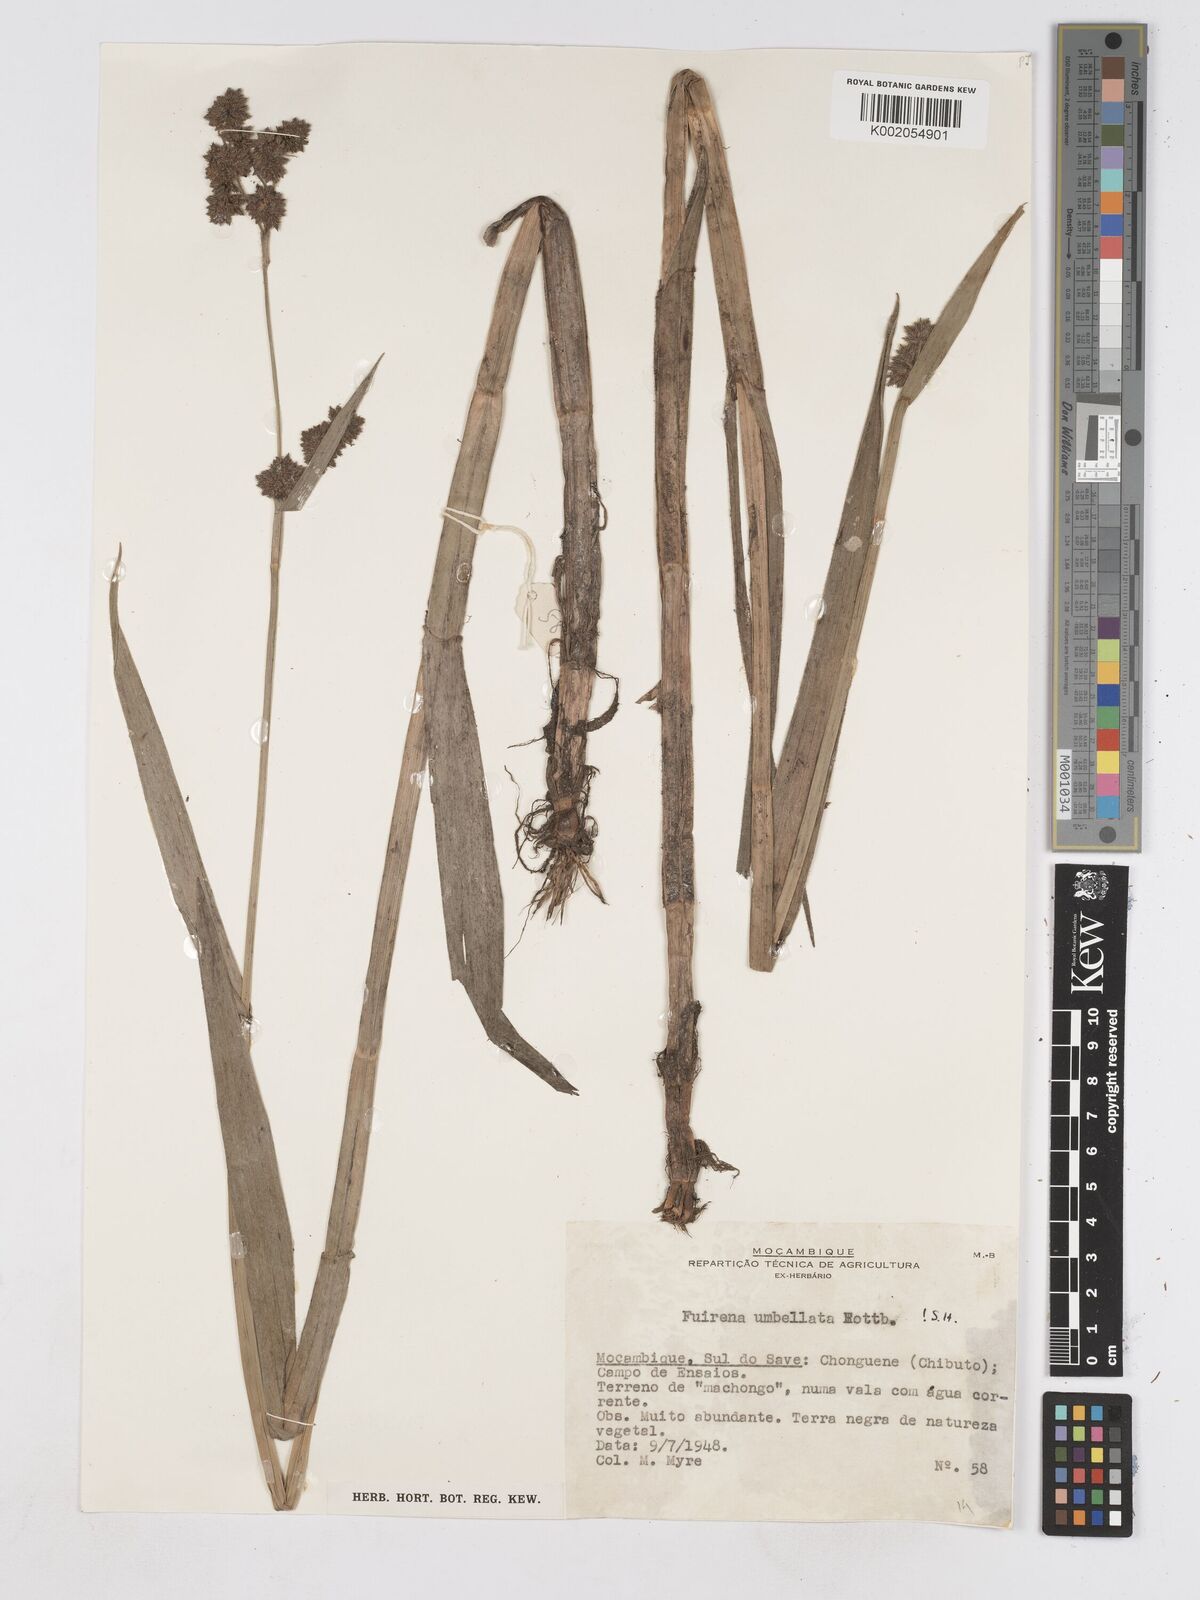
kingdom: Plantae
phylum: Tracheophyta
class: Liliopsida
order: Poales
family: Cyperaceae
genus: Fuirena
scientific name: Fuirena umbellata
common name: Yefen
